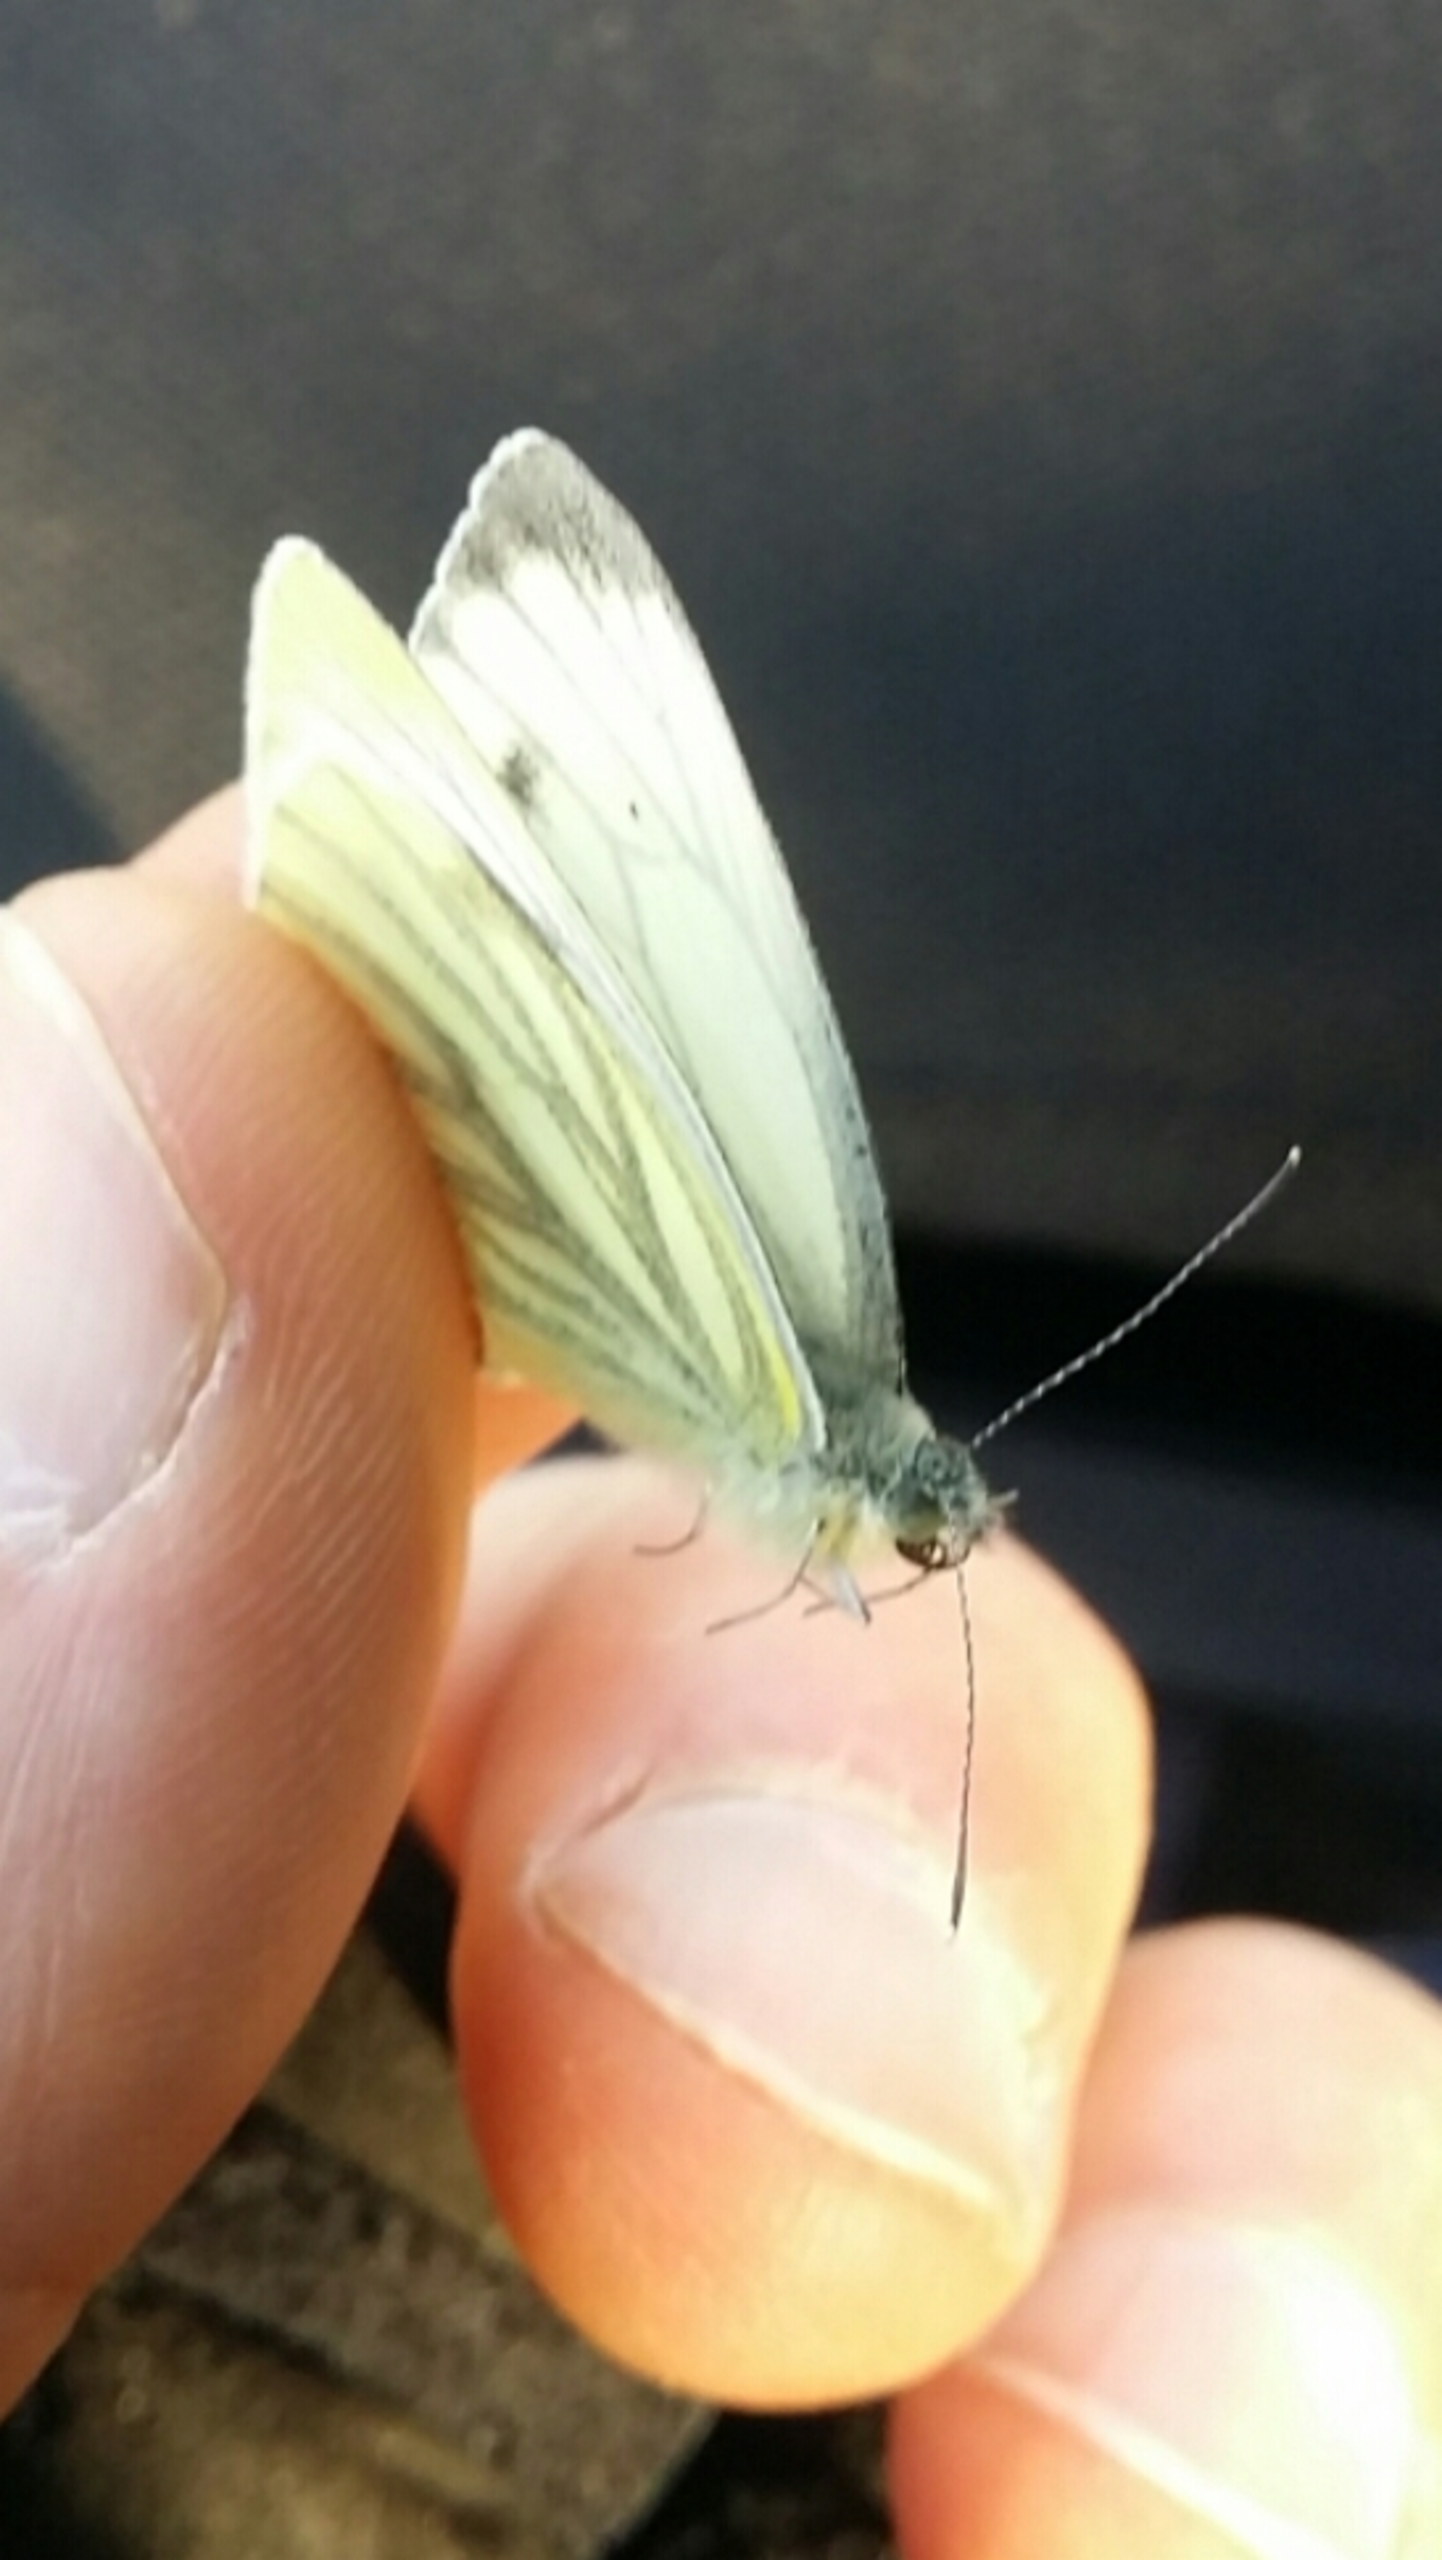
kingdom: Animalia
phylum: Arthropoda
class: Insecta
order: Lepidoptera
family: Pieridae
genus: Pieris
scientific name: Pieris napi
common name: Grønåret kålsommerfugl
